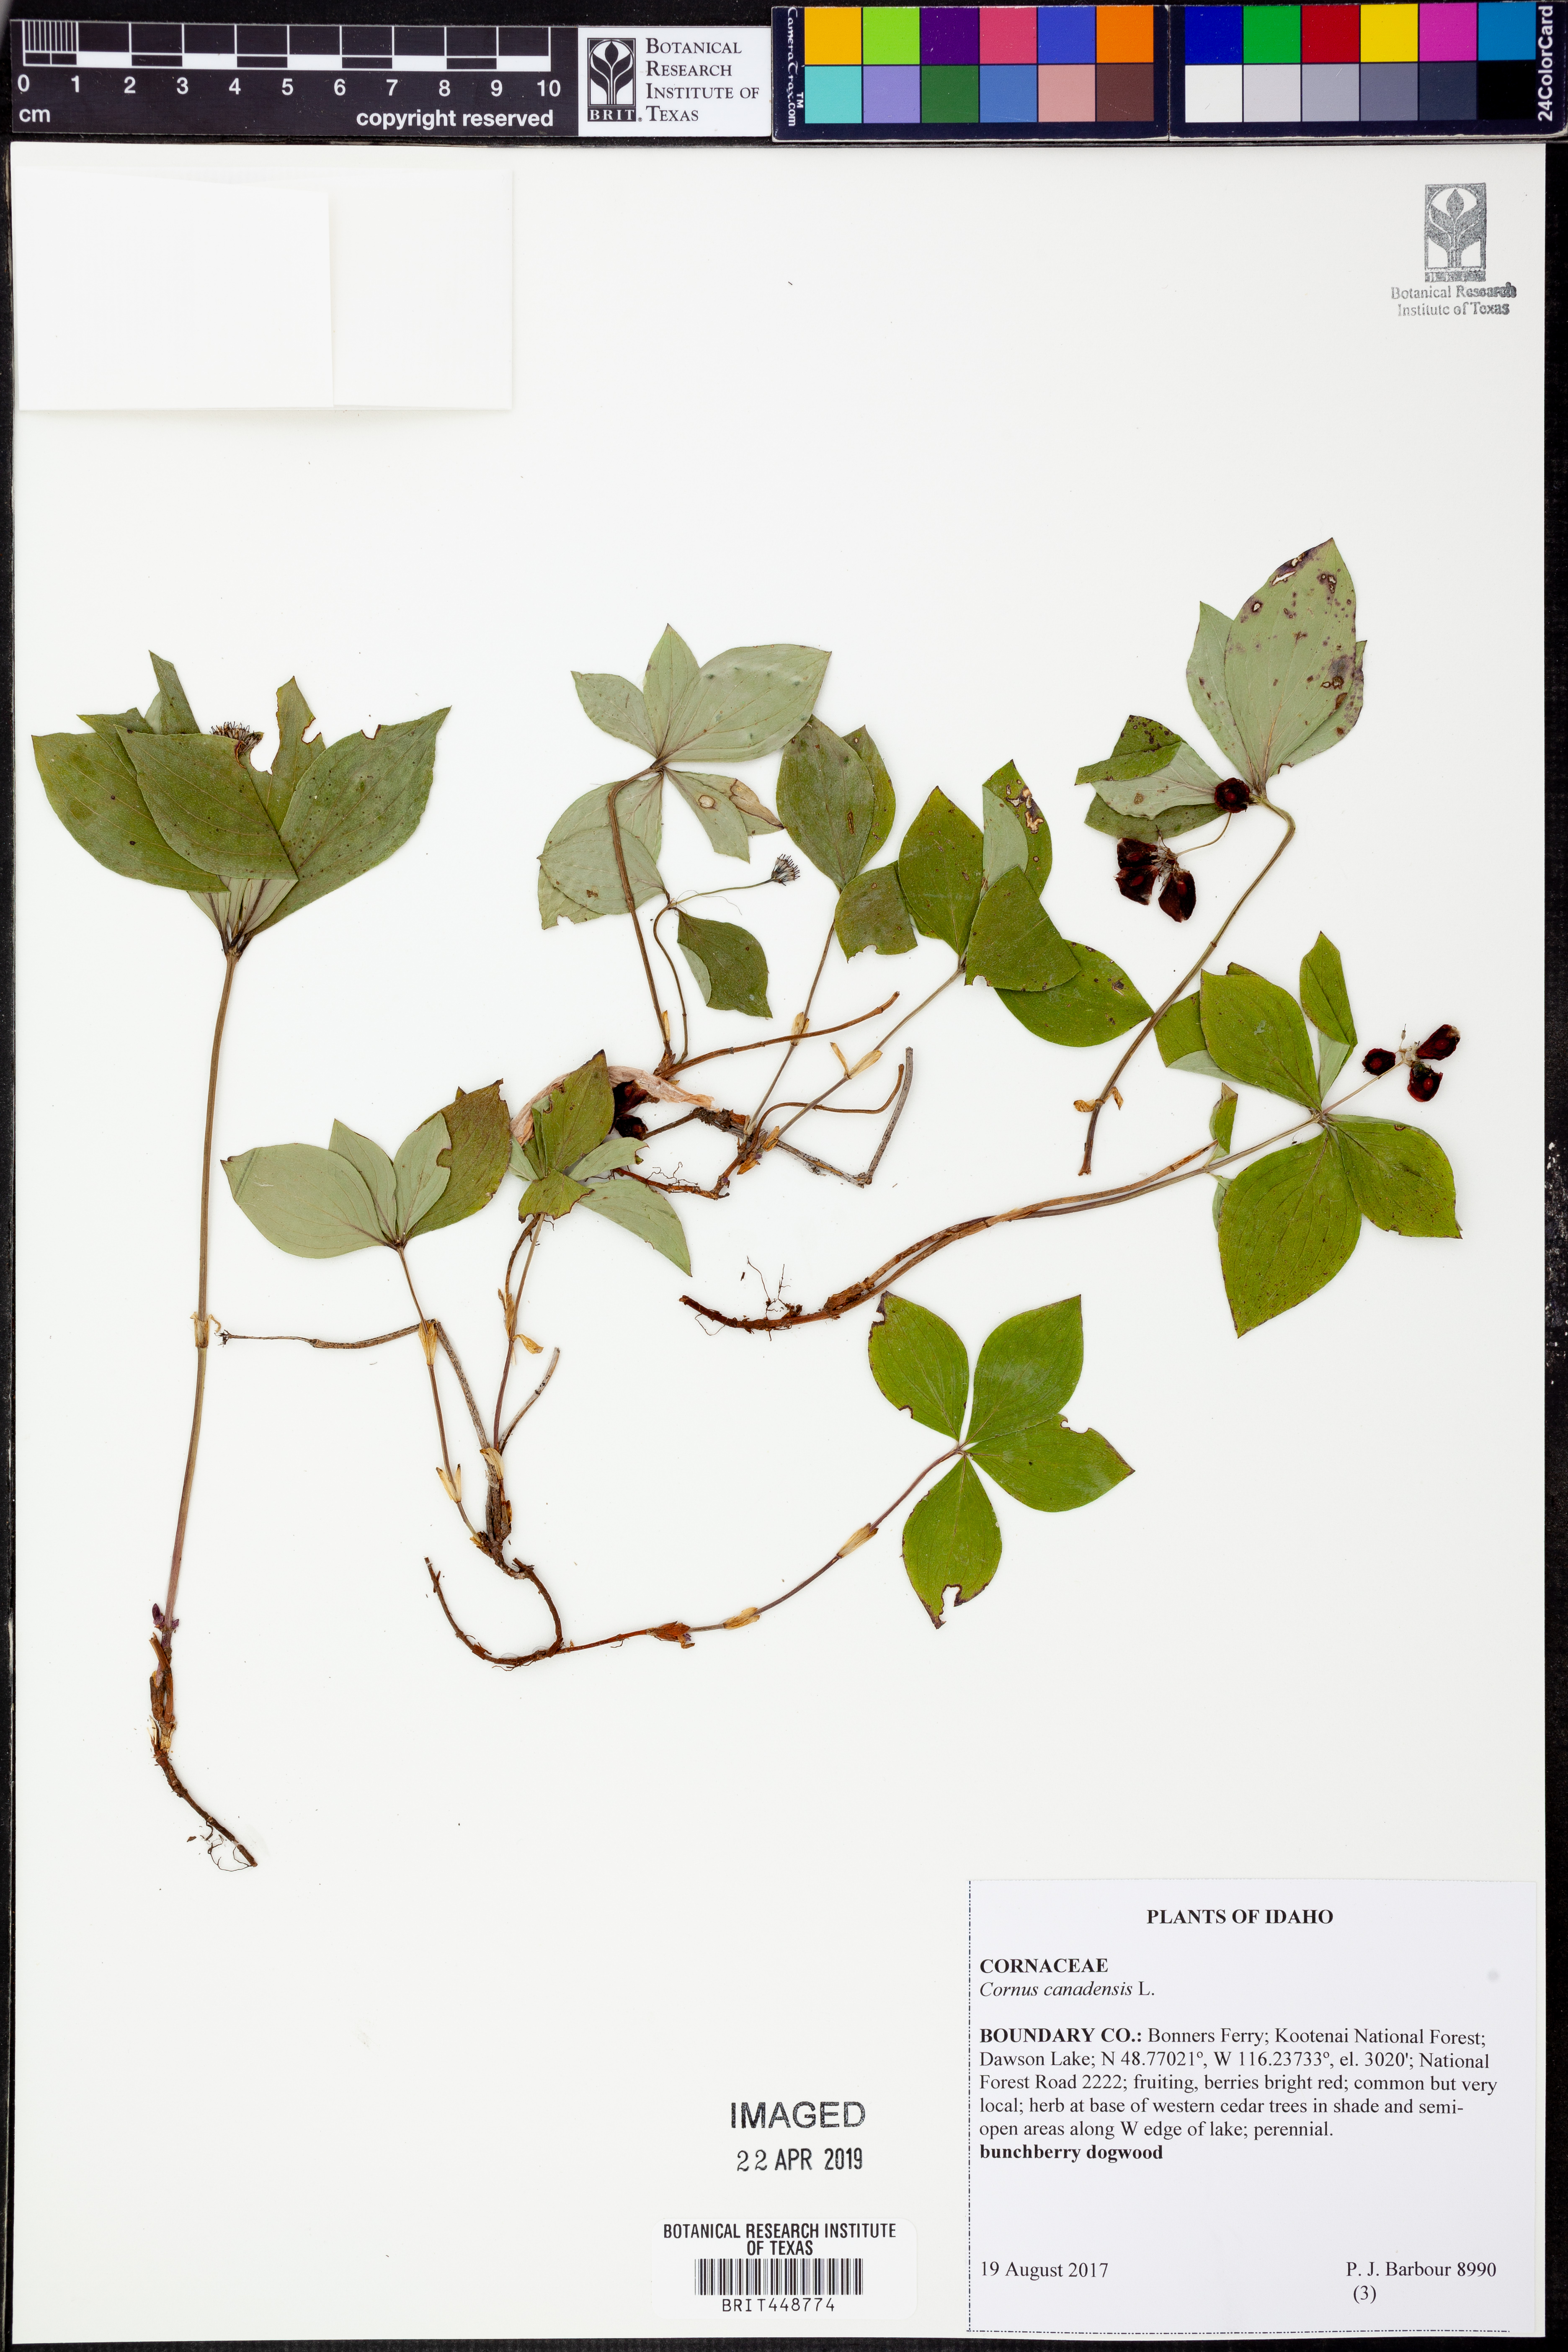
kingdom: Plantae
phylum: Tracheophyta
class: Magnoliopsida
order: Cornales
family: Cornaceae
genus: Cornus
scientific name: Cornus canadensis
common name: Creeping dogwood
